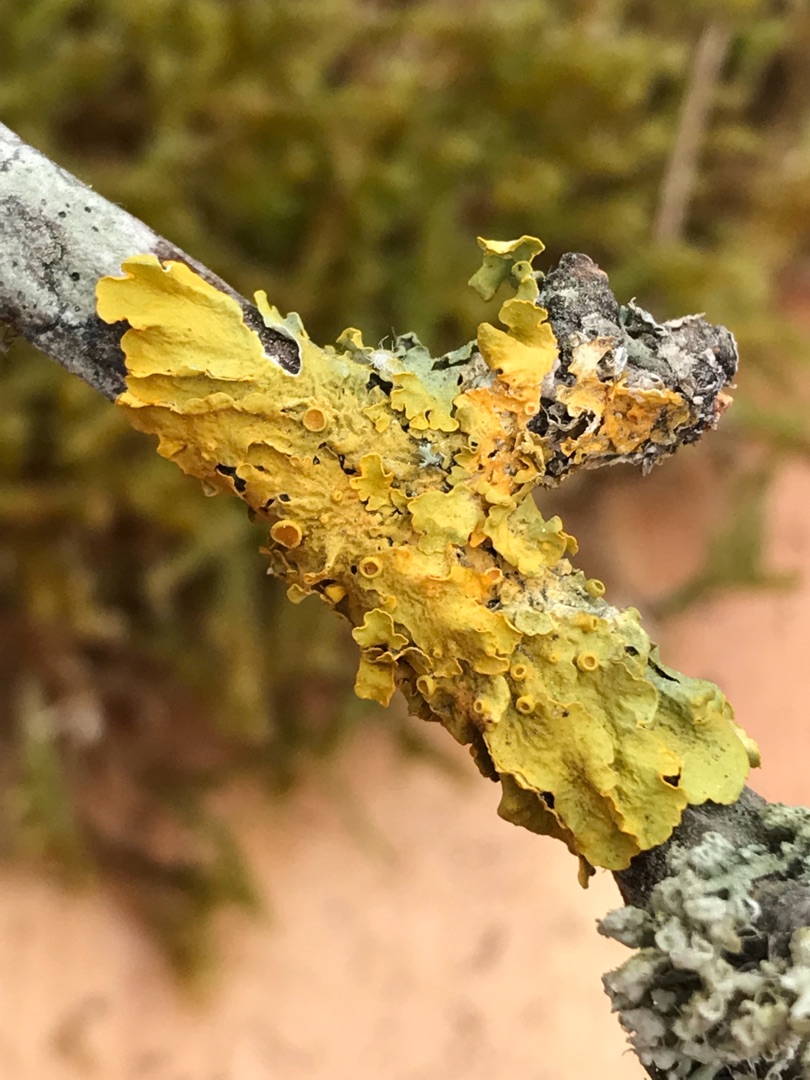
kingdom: Fungi
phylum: Ascomycota
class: Lecanoromycetes
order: Teloschistales
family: Teloschistaceae
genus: Xanthoria
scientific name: Xanthoria parietina
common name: Almindelig væggelav
